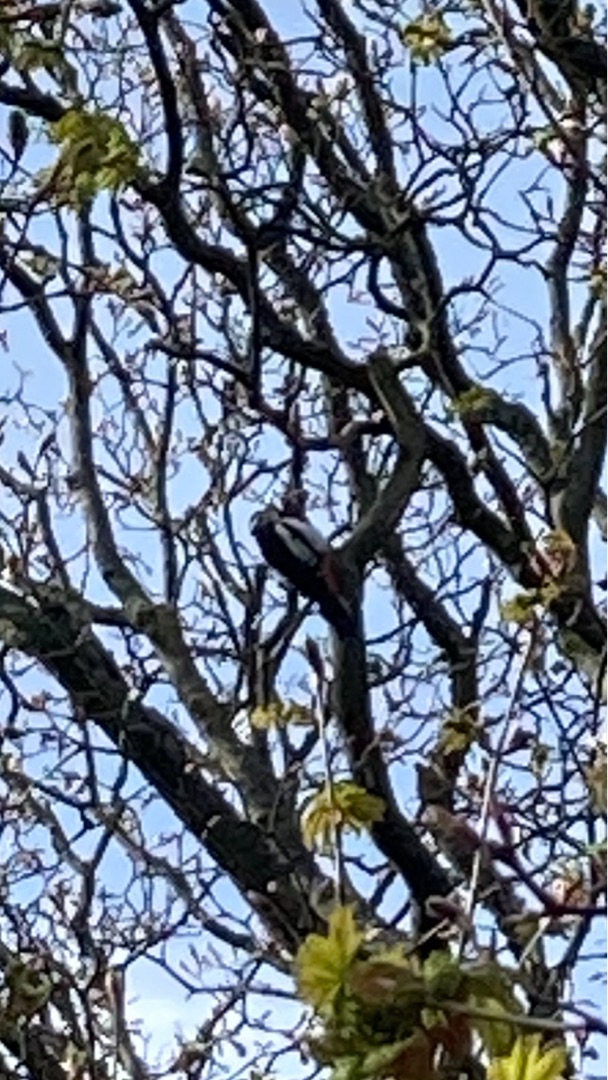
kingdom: Animalia
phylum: Chordata
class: Aves
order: Piciformes
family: Picidae
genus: Dendrocopos
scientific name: Dendrocopos major
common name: Stor flagspætte
